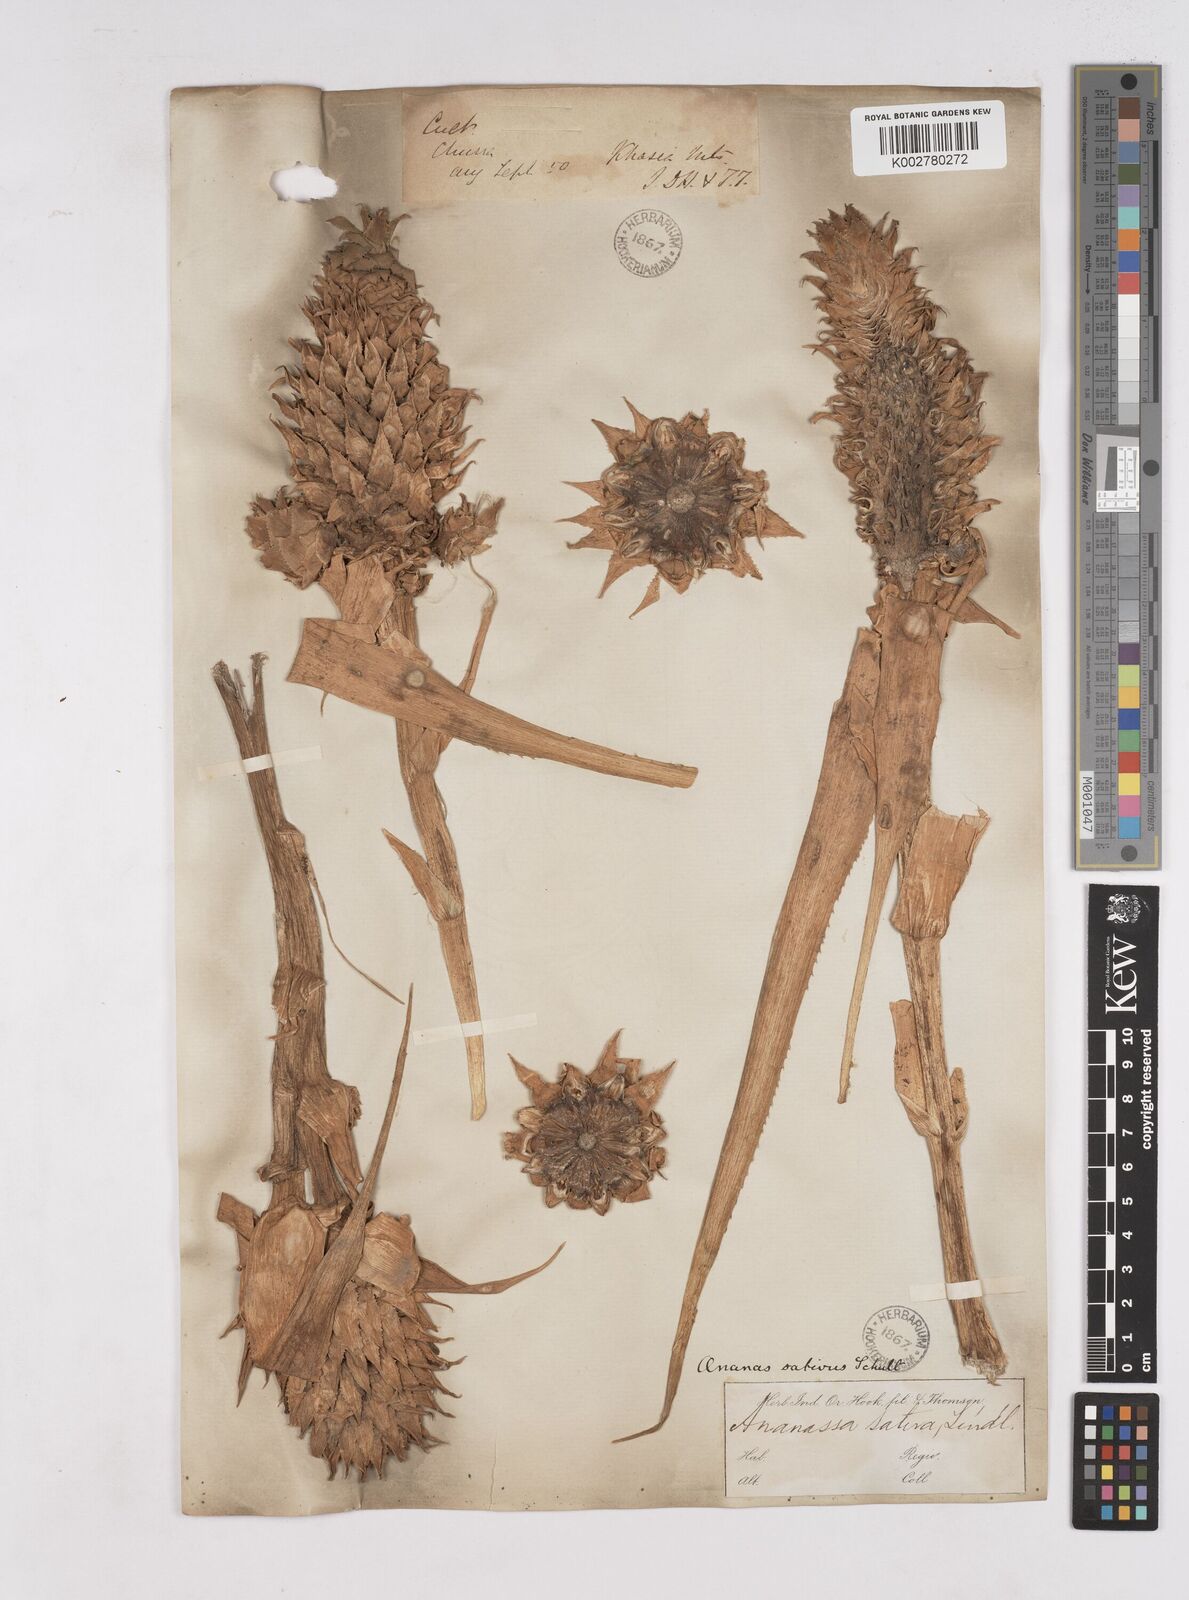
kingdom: Plantae
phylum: Tracheophyta
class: Liliopsida
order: Poales
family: Bromeliaceae
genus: Ananas
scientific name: Ananas comosus
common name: Pineapple
